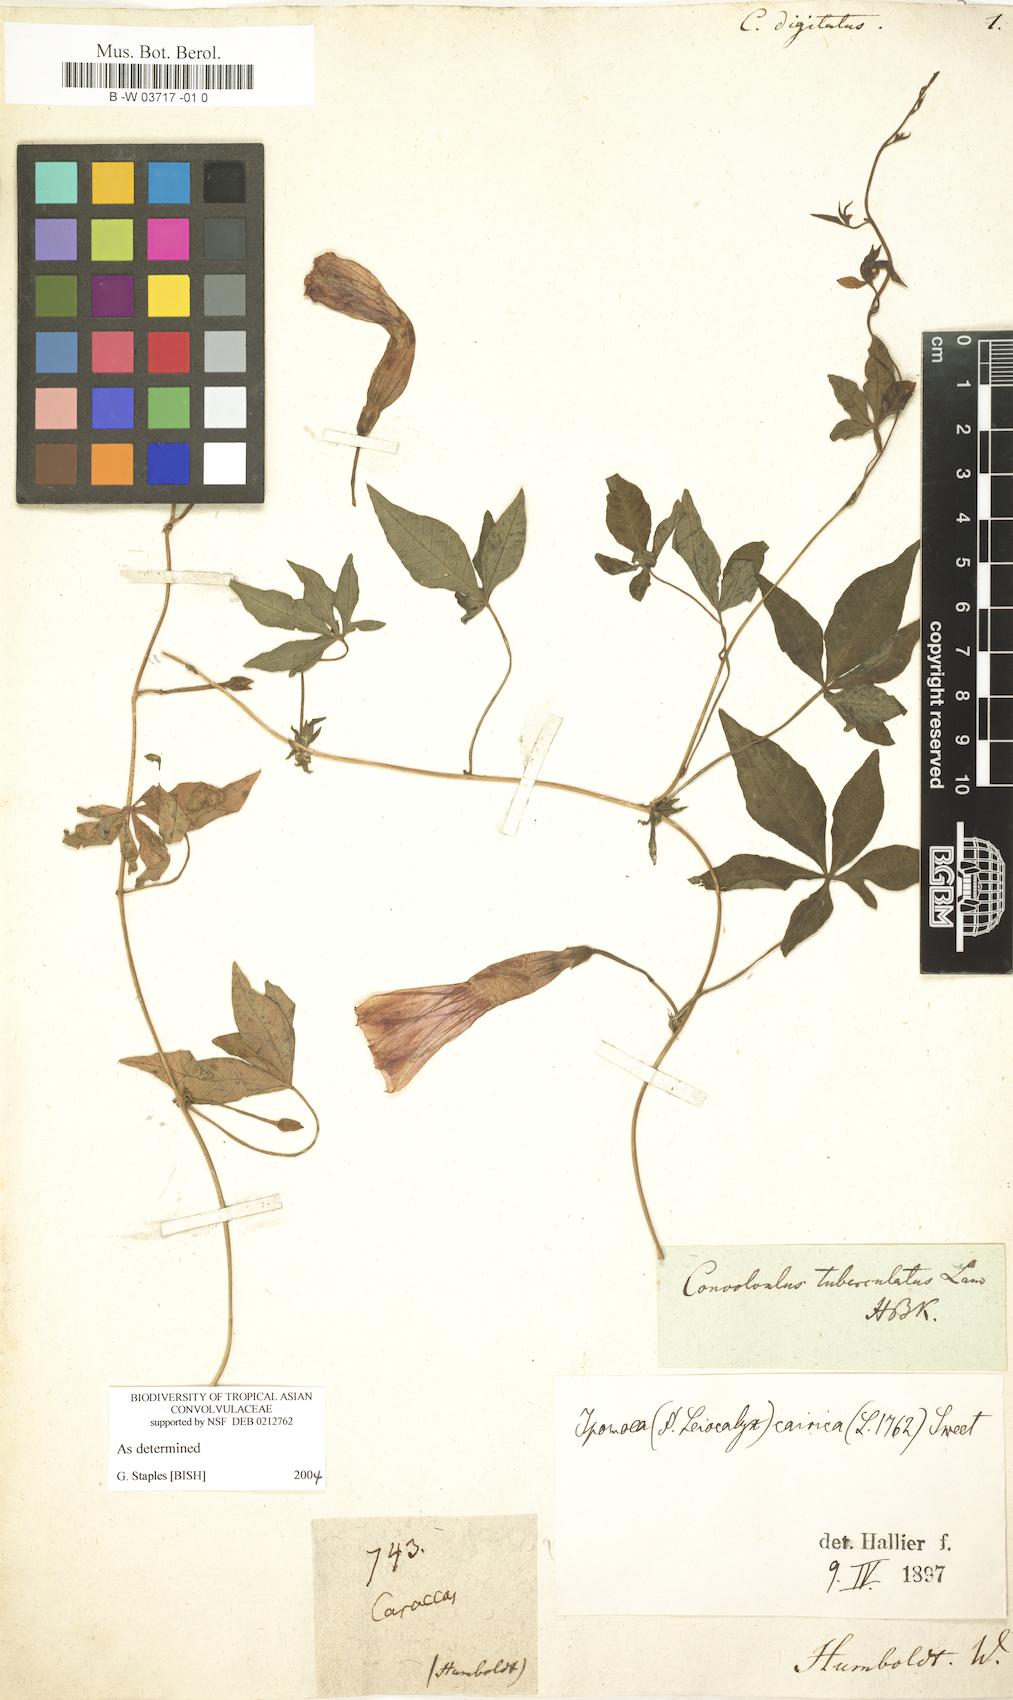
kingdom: Plantae
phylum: Tracheophyta
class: Magnoliopsida
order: Solanales
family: Convolvulaceae
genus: Ipomoea
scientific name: Ipomoea digitata
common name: Finger-leaf morning-glory
